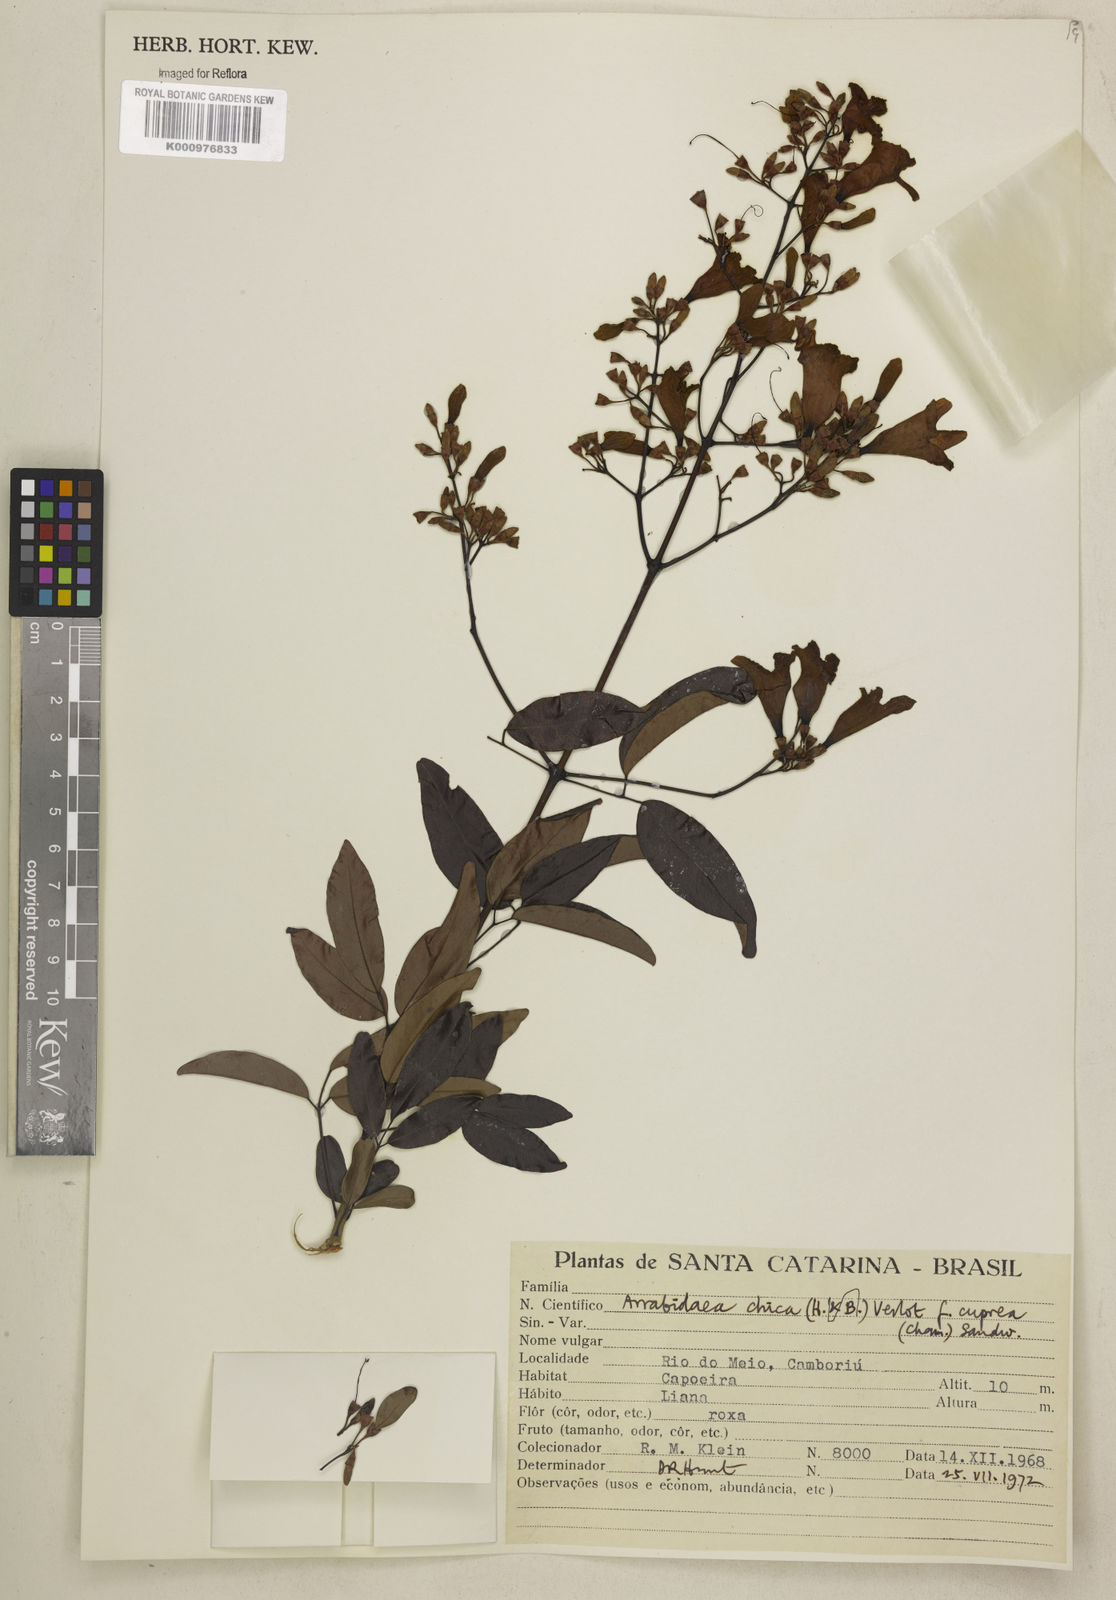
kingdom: Plantae
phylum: Tracheophyta
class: Magnoliopsida
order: Lamiales
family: Bignoniaceae
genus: Fridericia
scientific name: Fridericia chica
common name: Cricketvine
